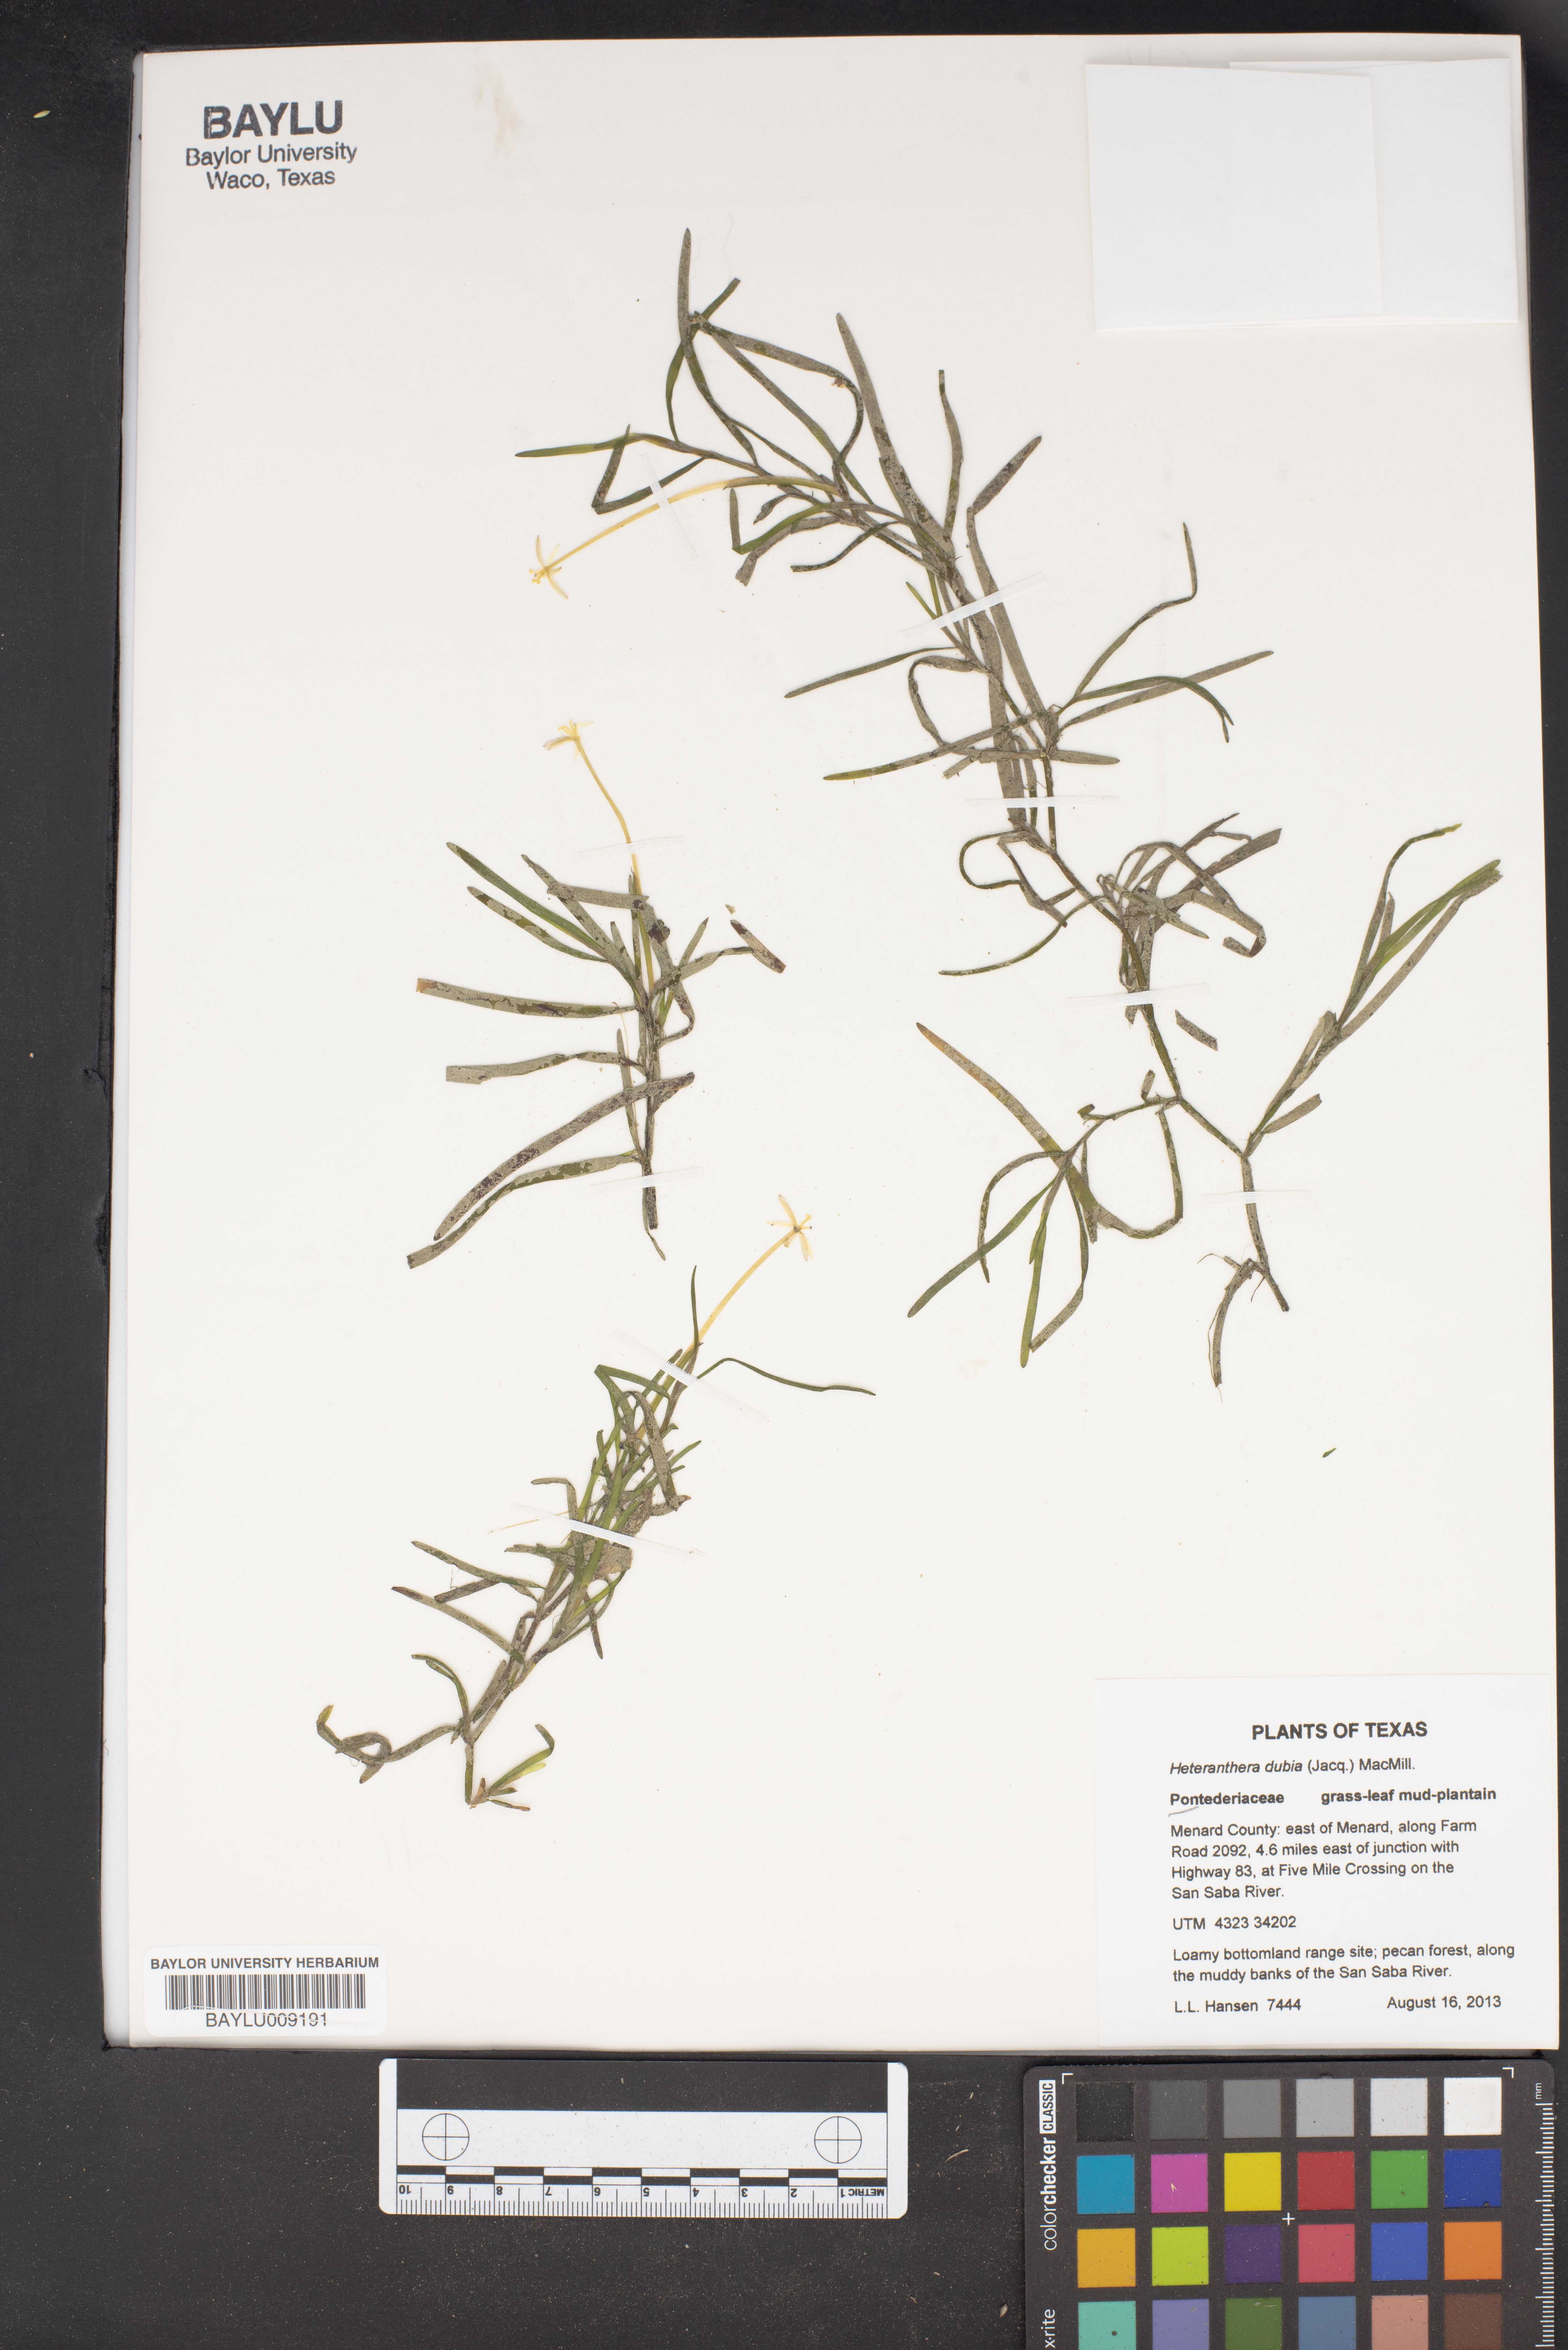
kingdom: Plantae
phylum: Tracheophyta
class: Liliopsida
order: Commelinales
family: Pontederiaceae
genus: Heteranthera
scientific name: Heteranthera dubia
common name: Grass-leaved mud plantain
